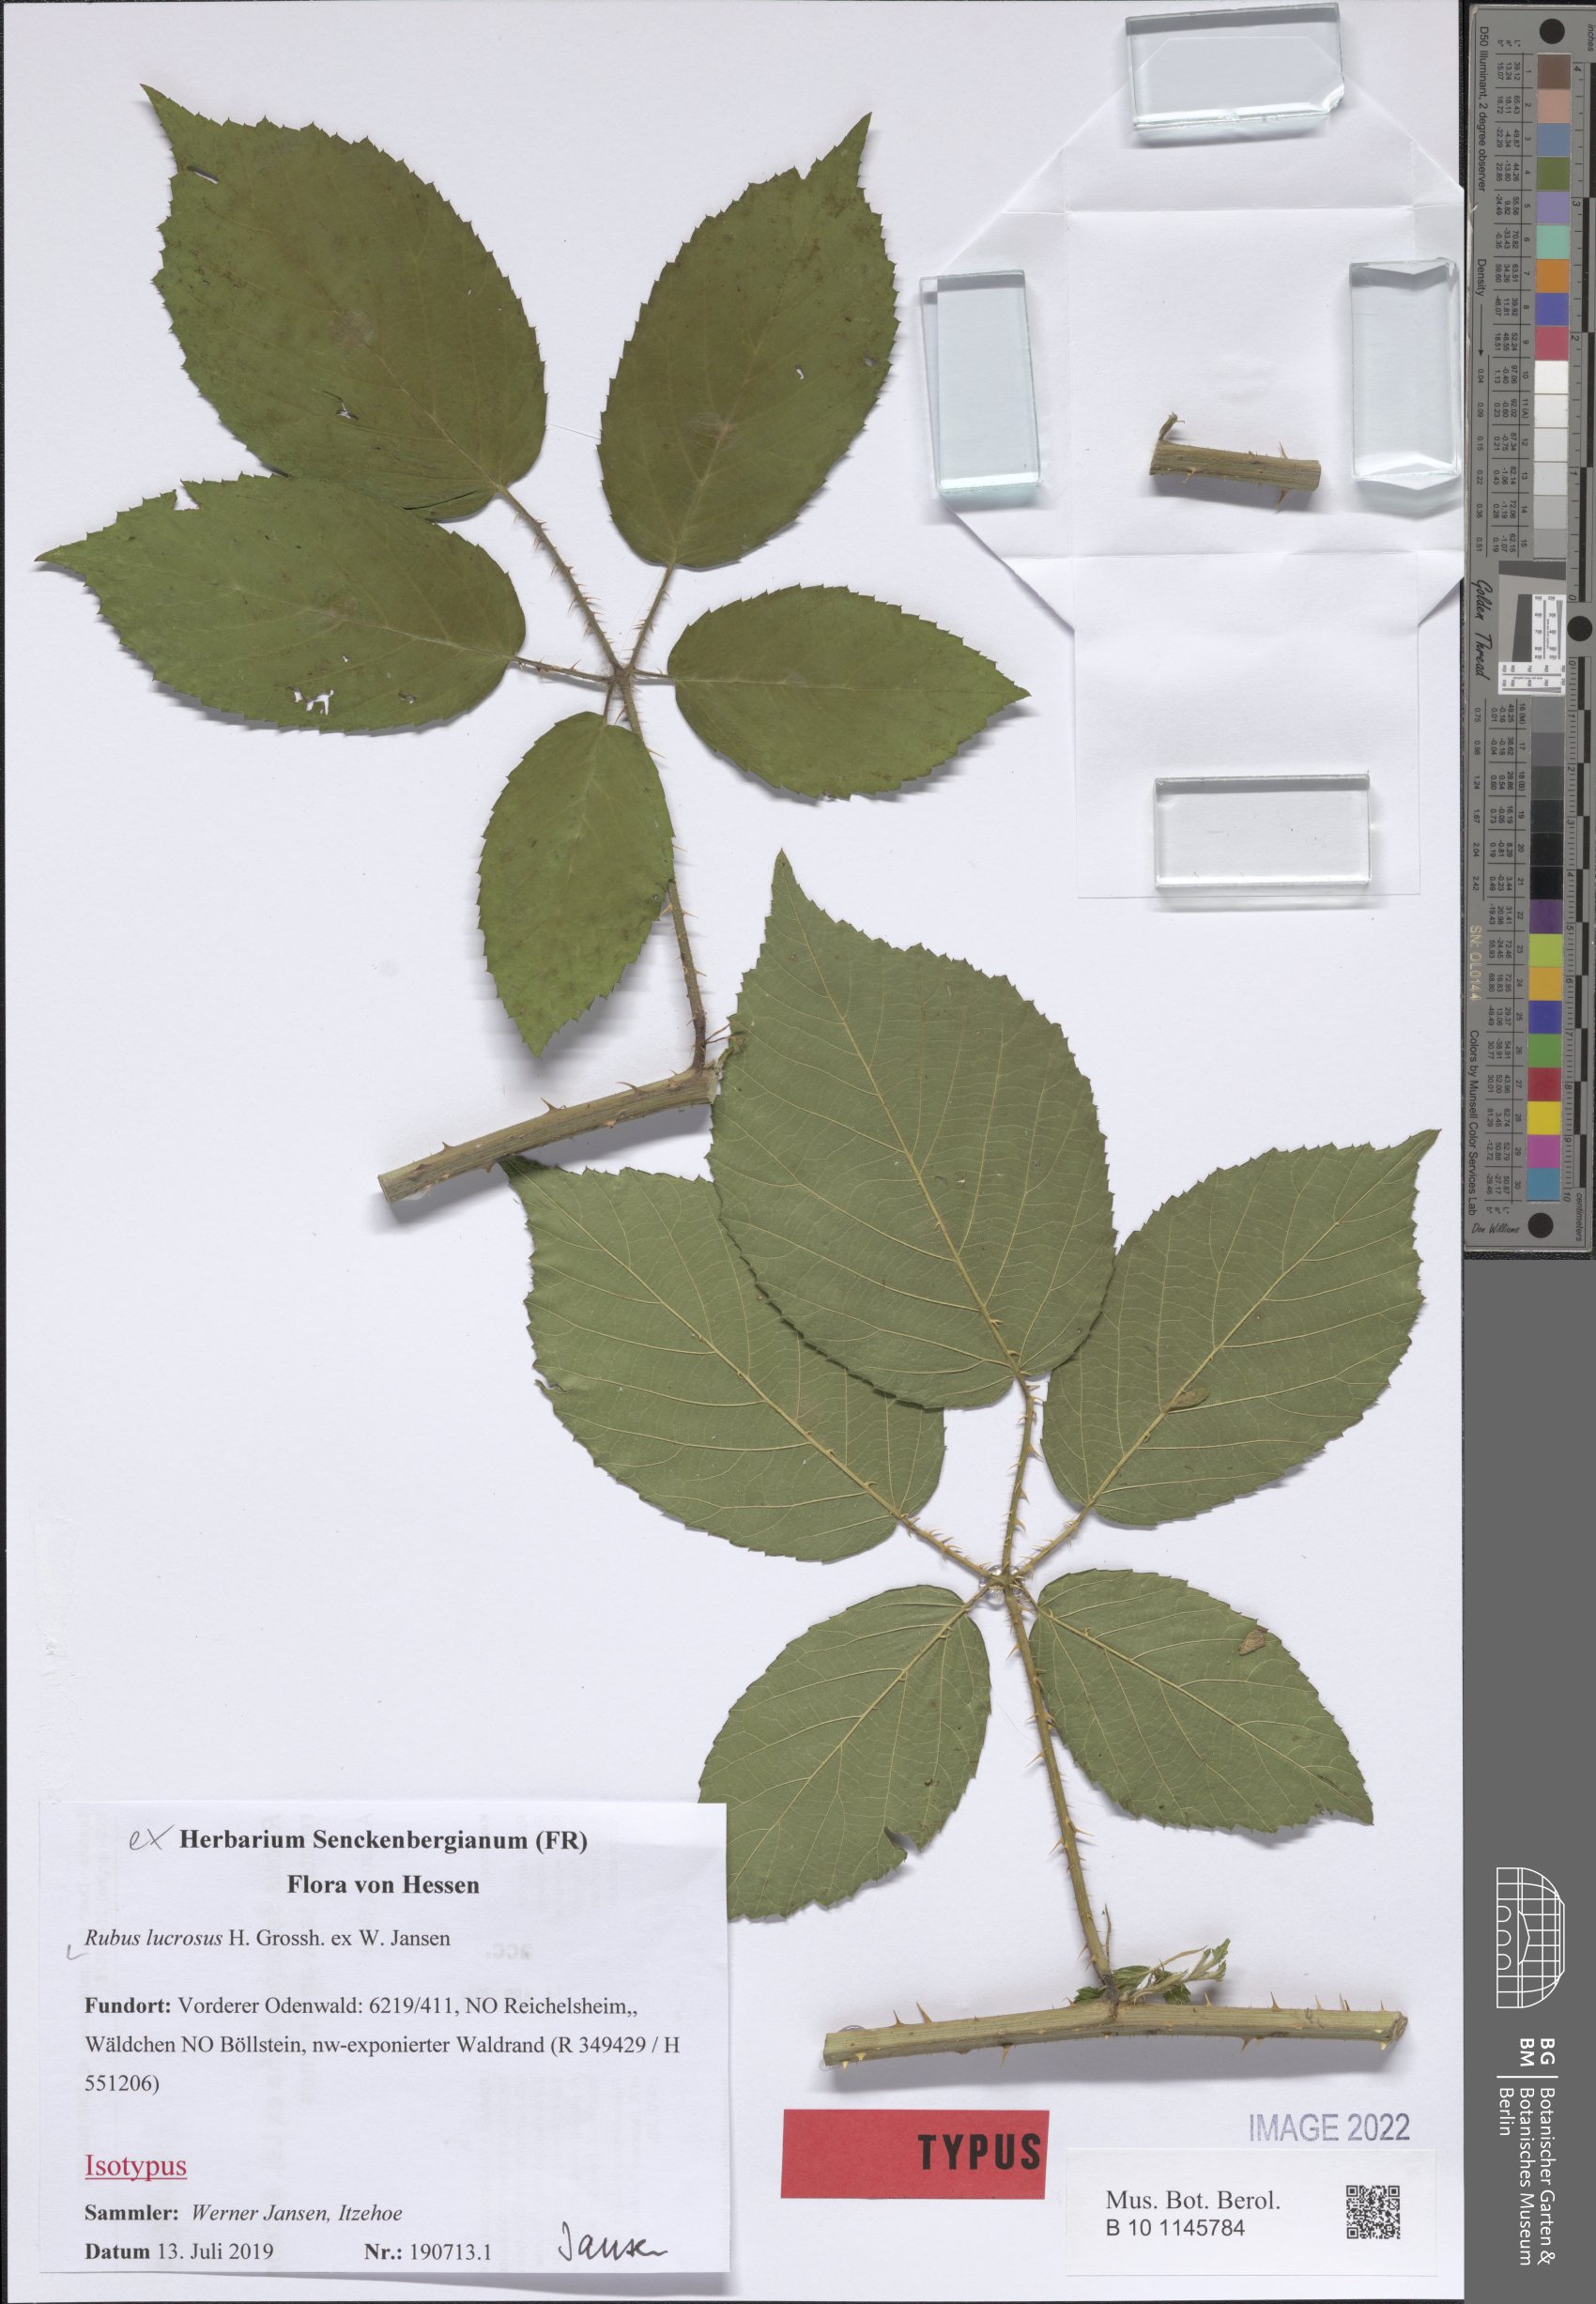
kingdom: Plantae
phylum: Tracheophyta
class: Magnoliopsida
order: Rosales
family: Rosaceae
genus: Rubus
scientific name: Rubus lucrosus
